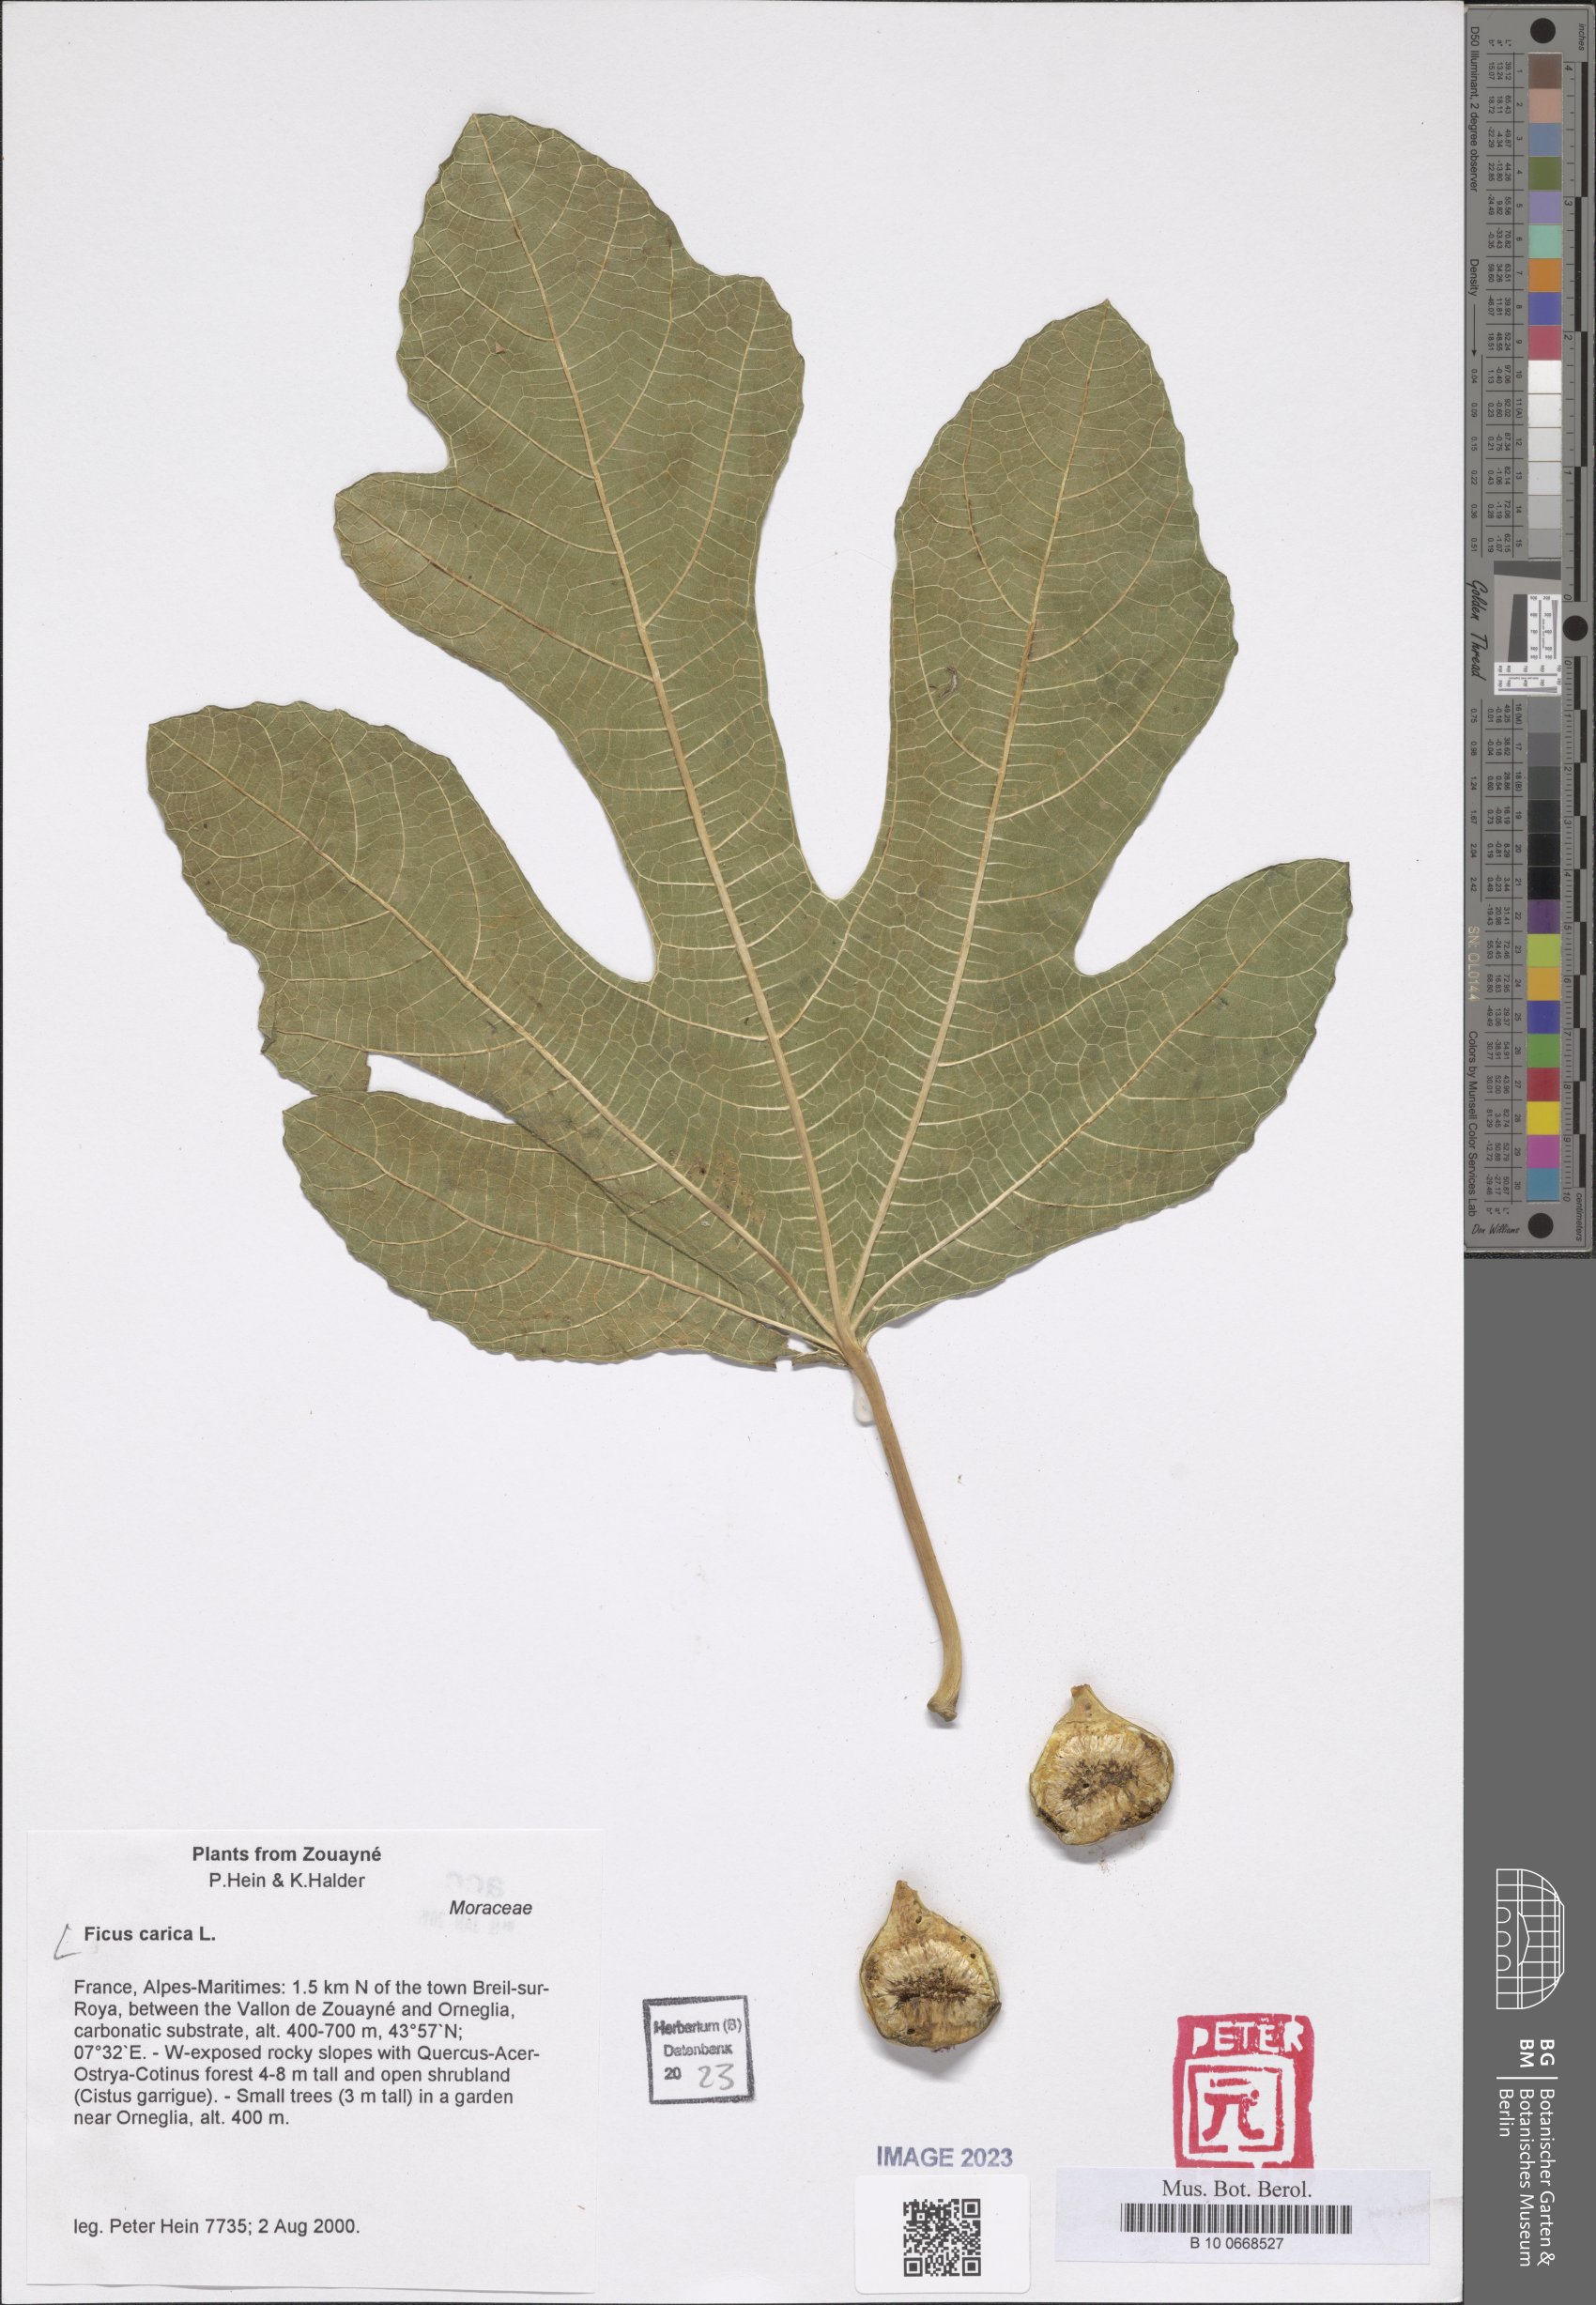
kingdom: Plantae
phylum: Tracheophyta
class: Magnoliopsida
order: Rosales
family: Moraceae
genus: Ficus
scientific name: Ficus carica
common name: Fig
